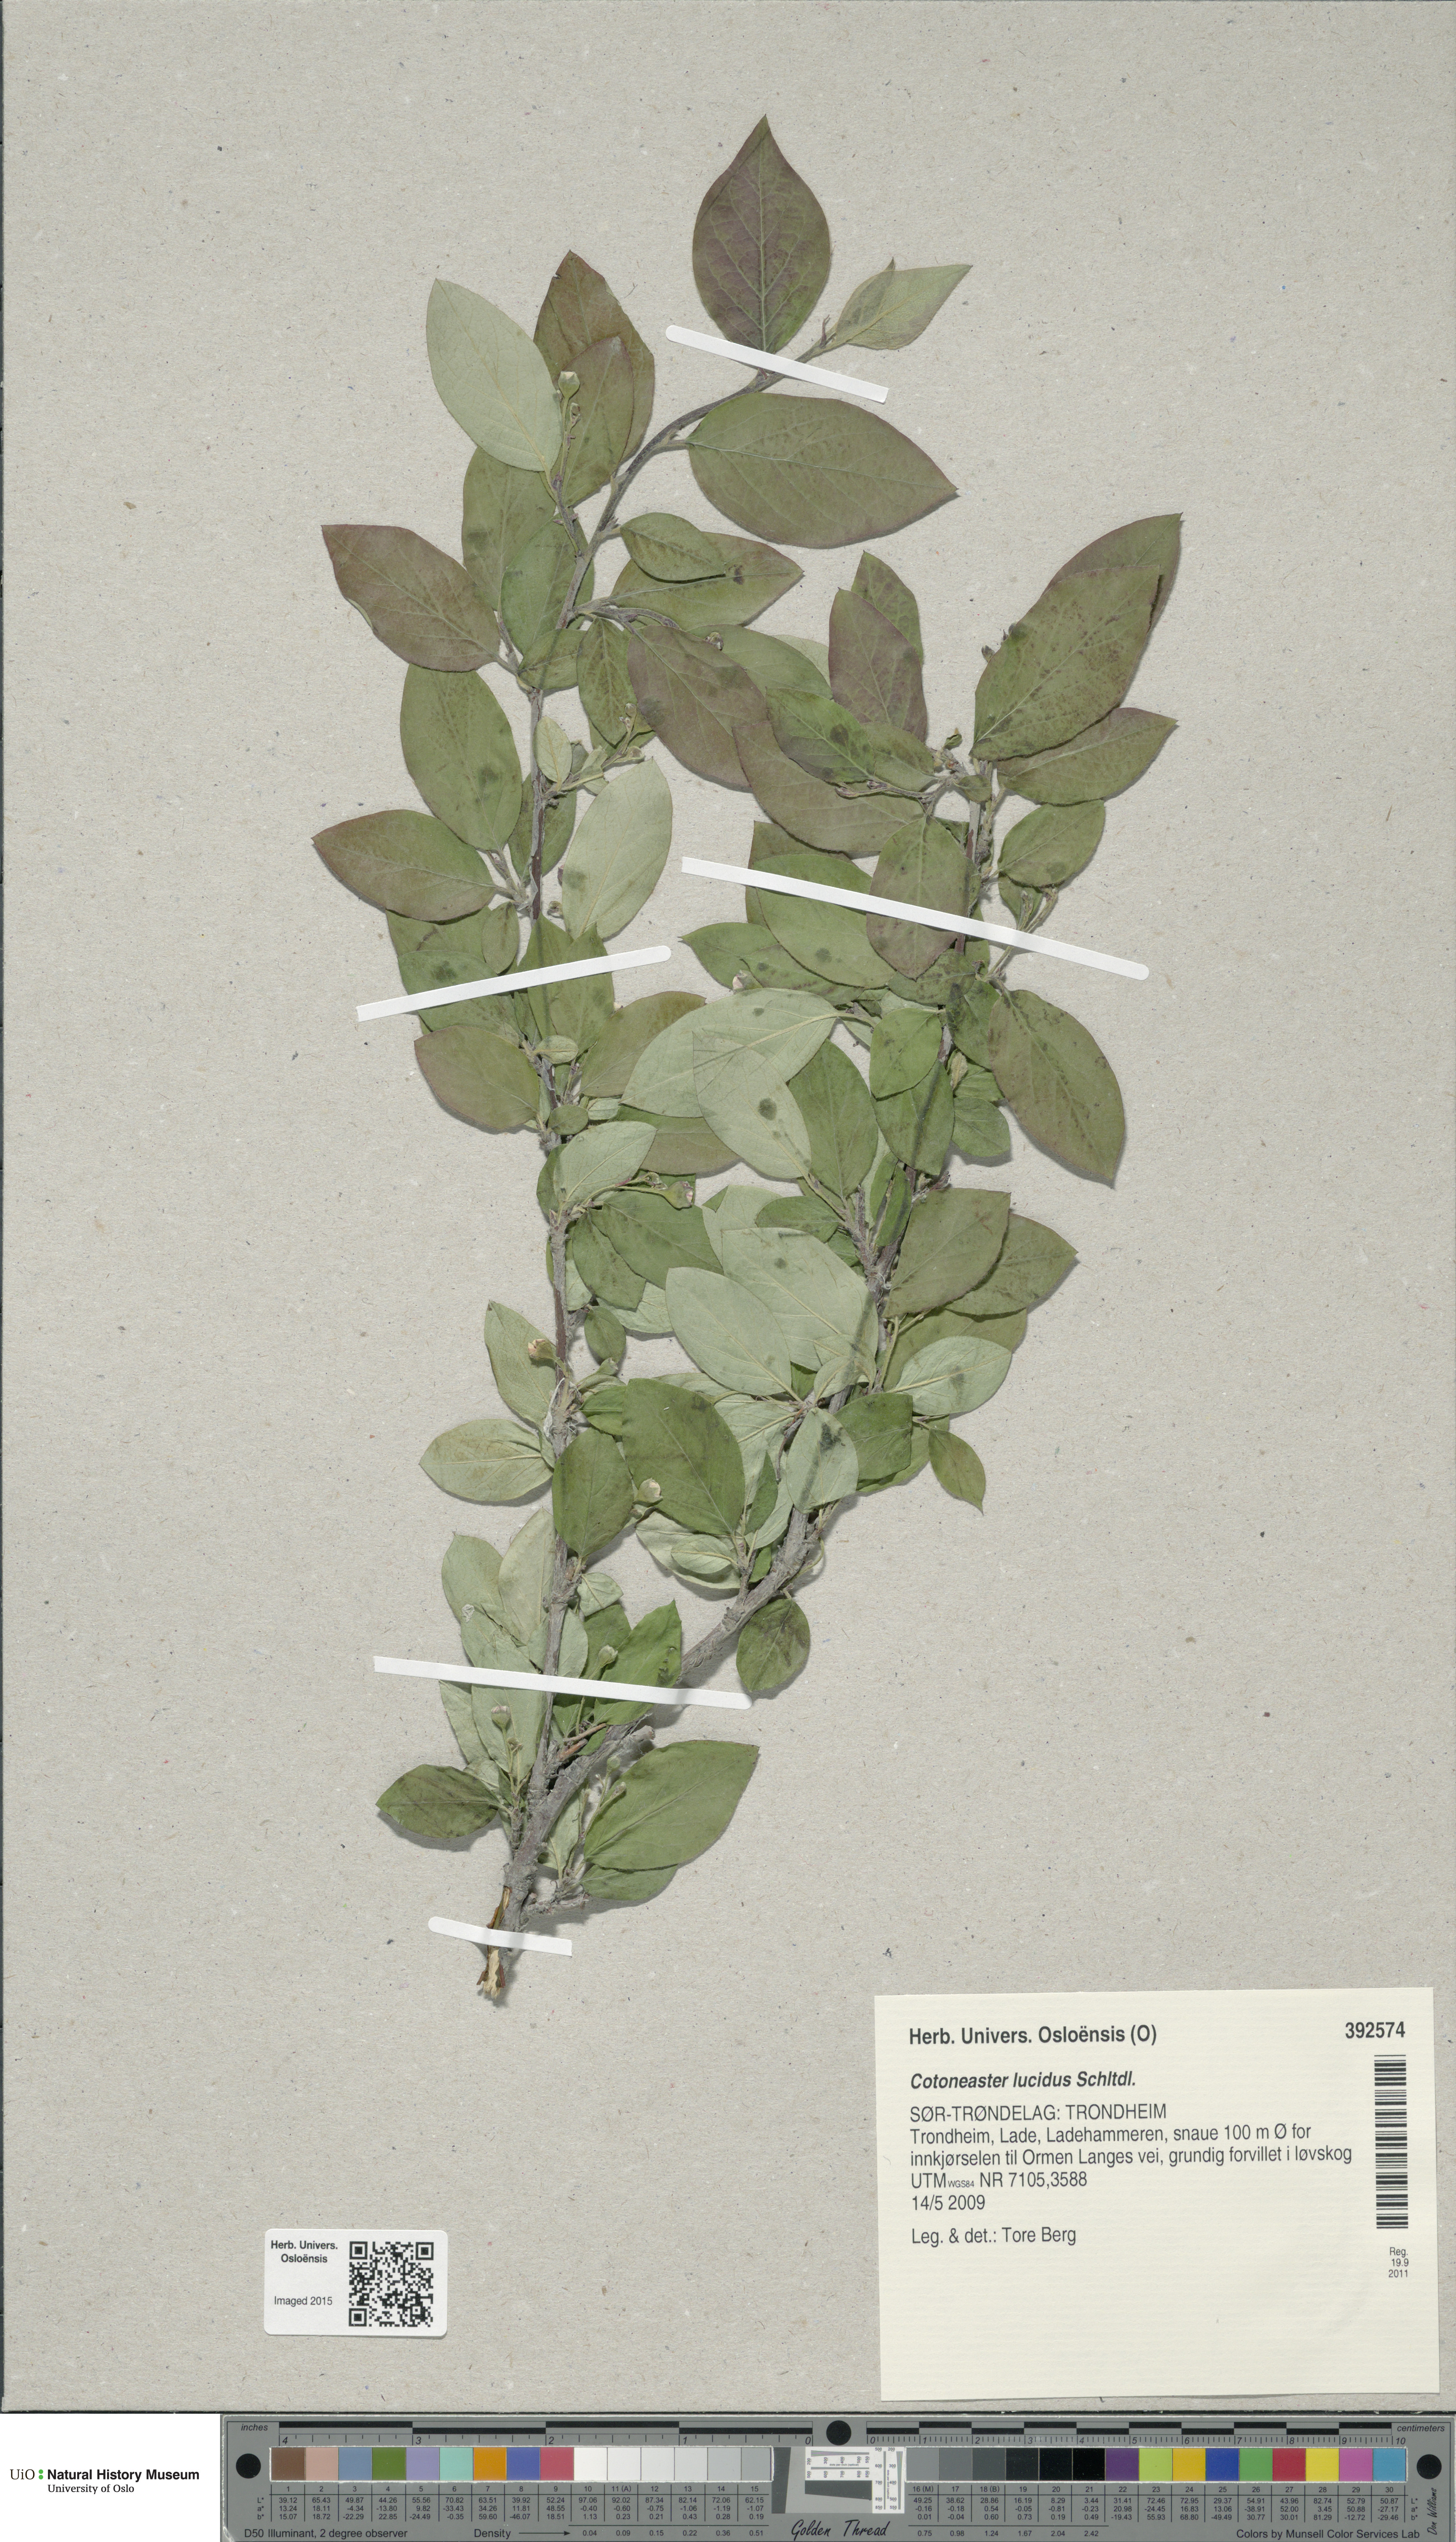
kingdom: Plantae
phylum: Tracheophyta
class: Magnoliopsida
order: Rosales
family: Rosaceae
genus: Cotoneaster
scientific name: Cotoneaster acutifolius
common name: Peking cotoneaster
